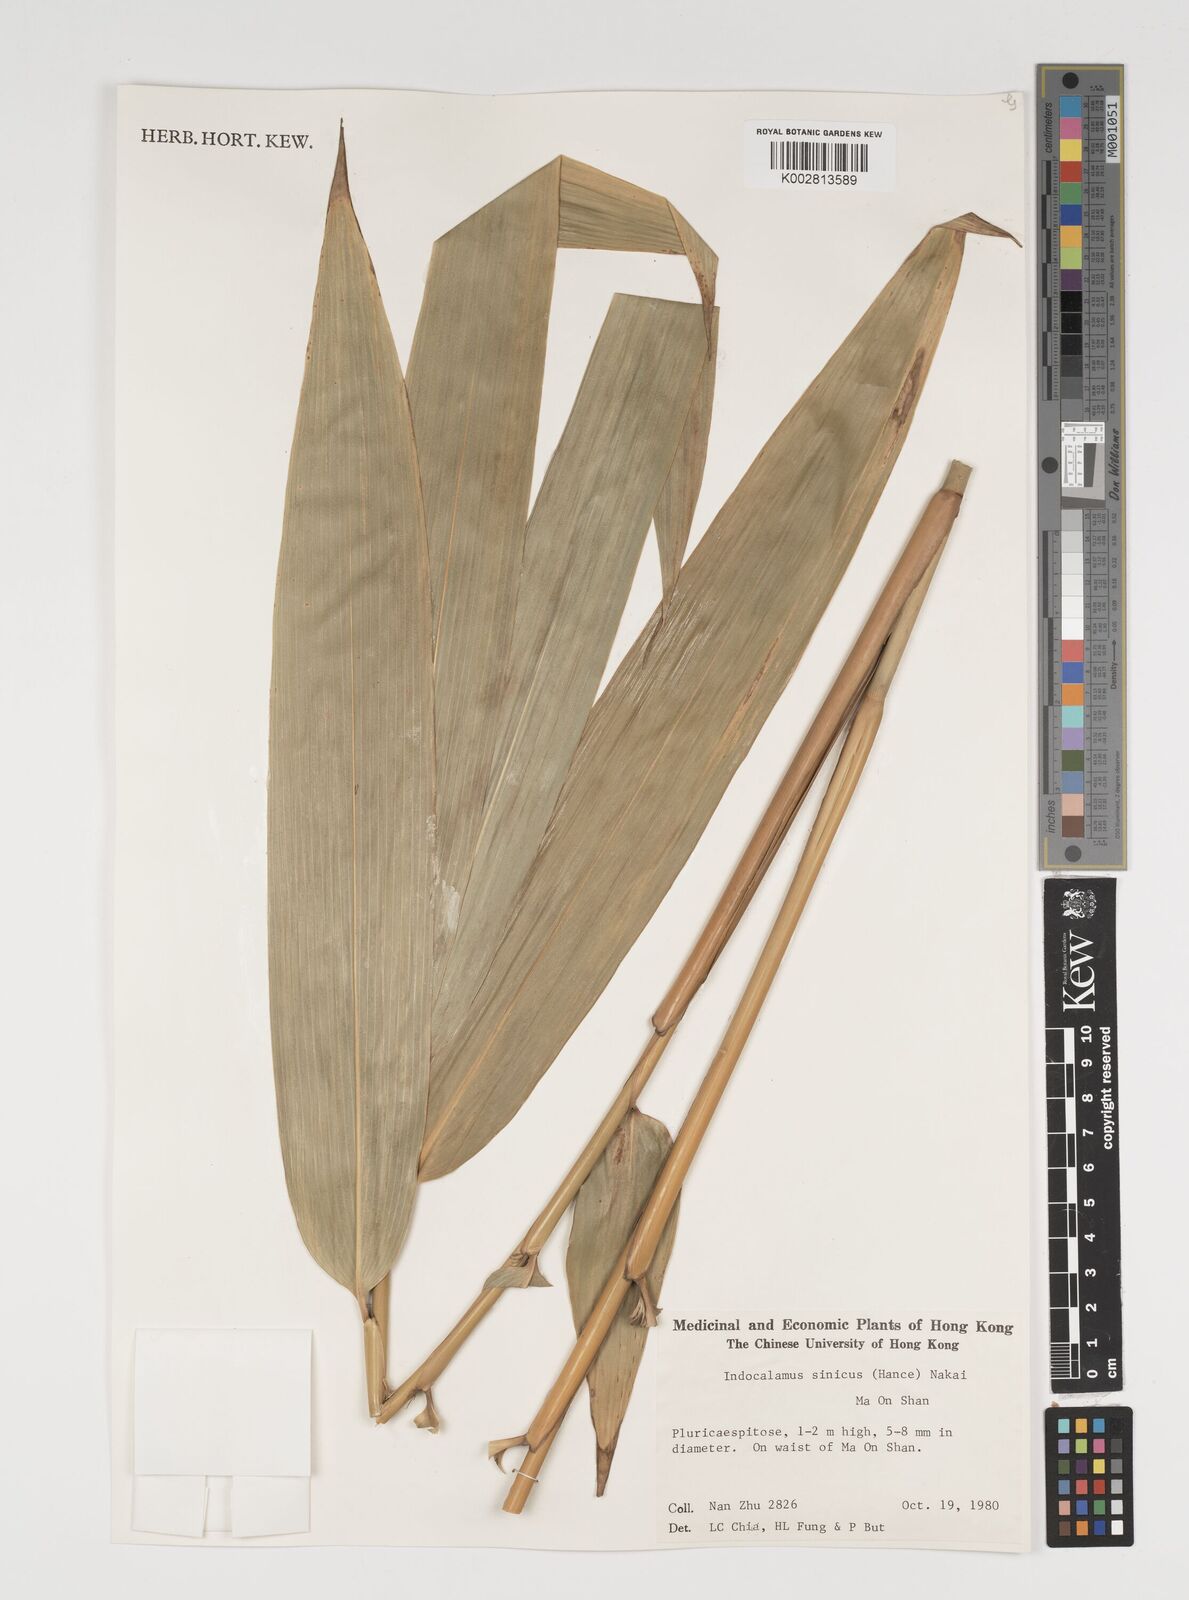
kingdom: Plantae
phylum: Tracheophyta
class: Liliopsida
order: Poales
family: Poaceae
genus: Indocalamus
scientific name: Indocalamus sinicus
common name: Chinese cane
